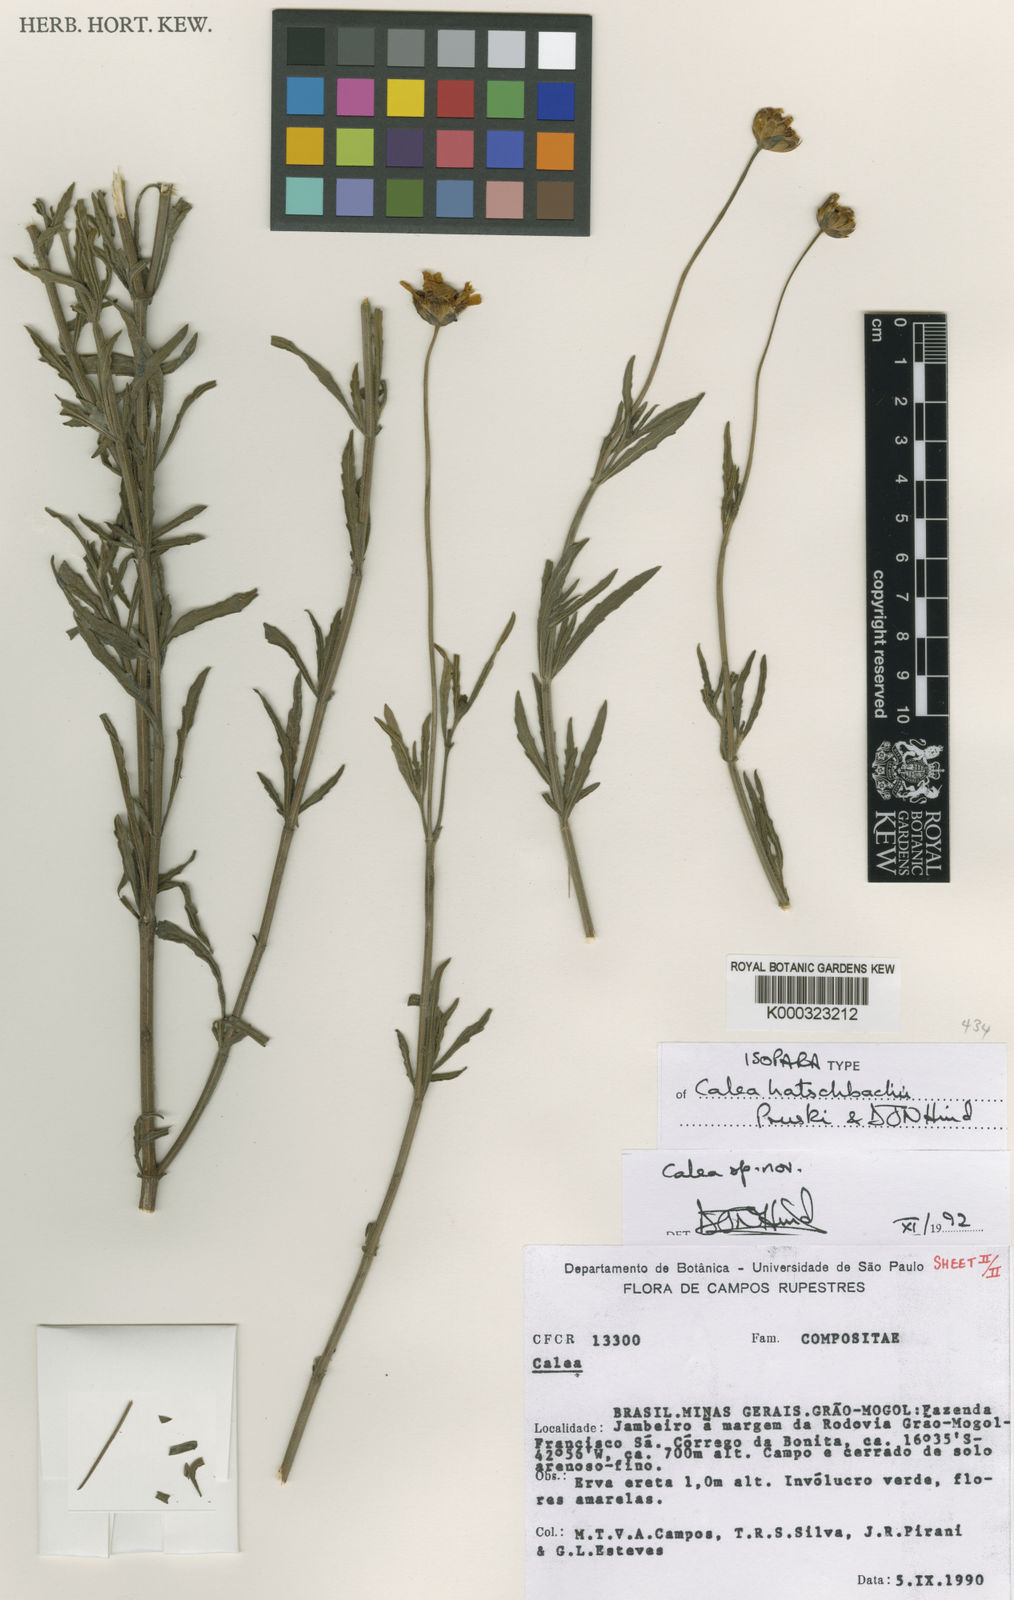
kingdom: Plantae
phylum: Tracheophyta
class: Magnoliopsida
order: Asterales
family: Asteraceae
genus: Calea
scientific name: Calea hatschbachii
